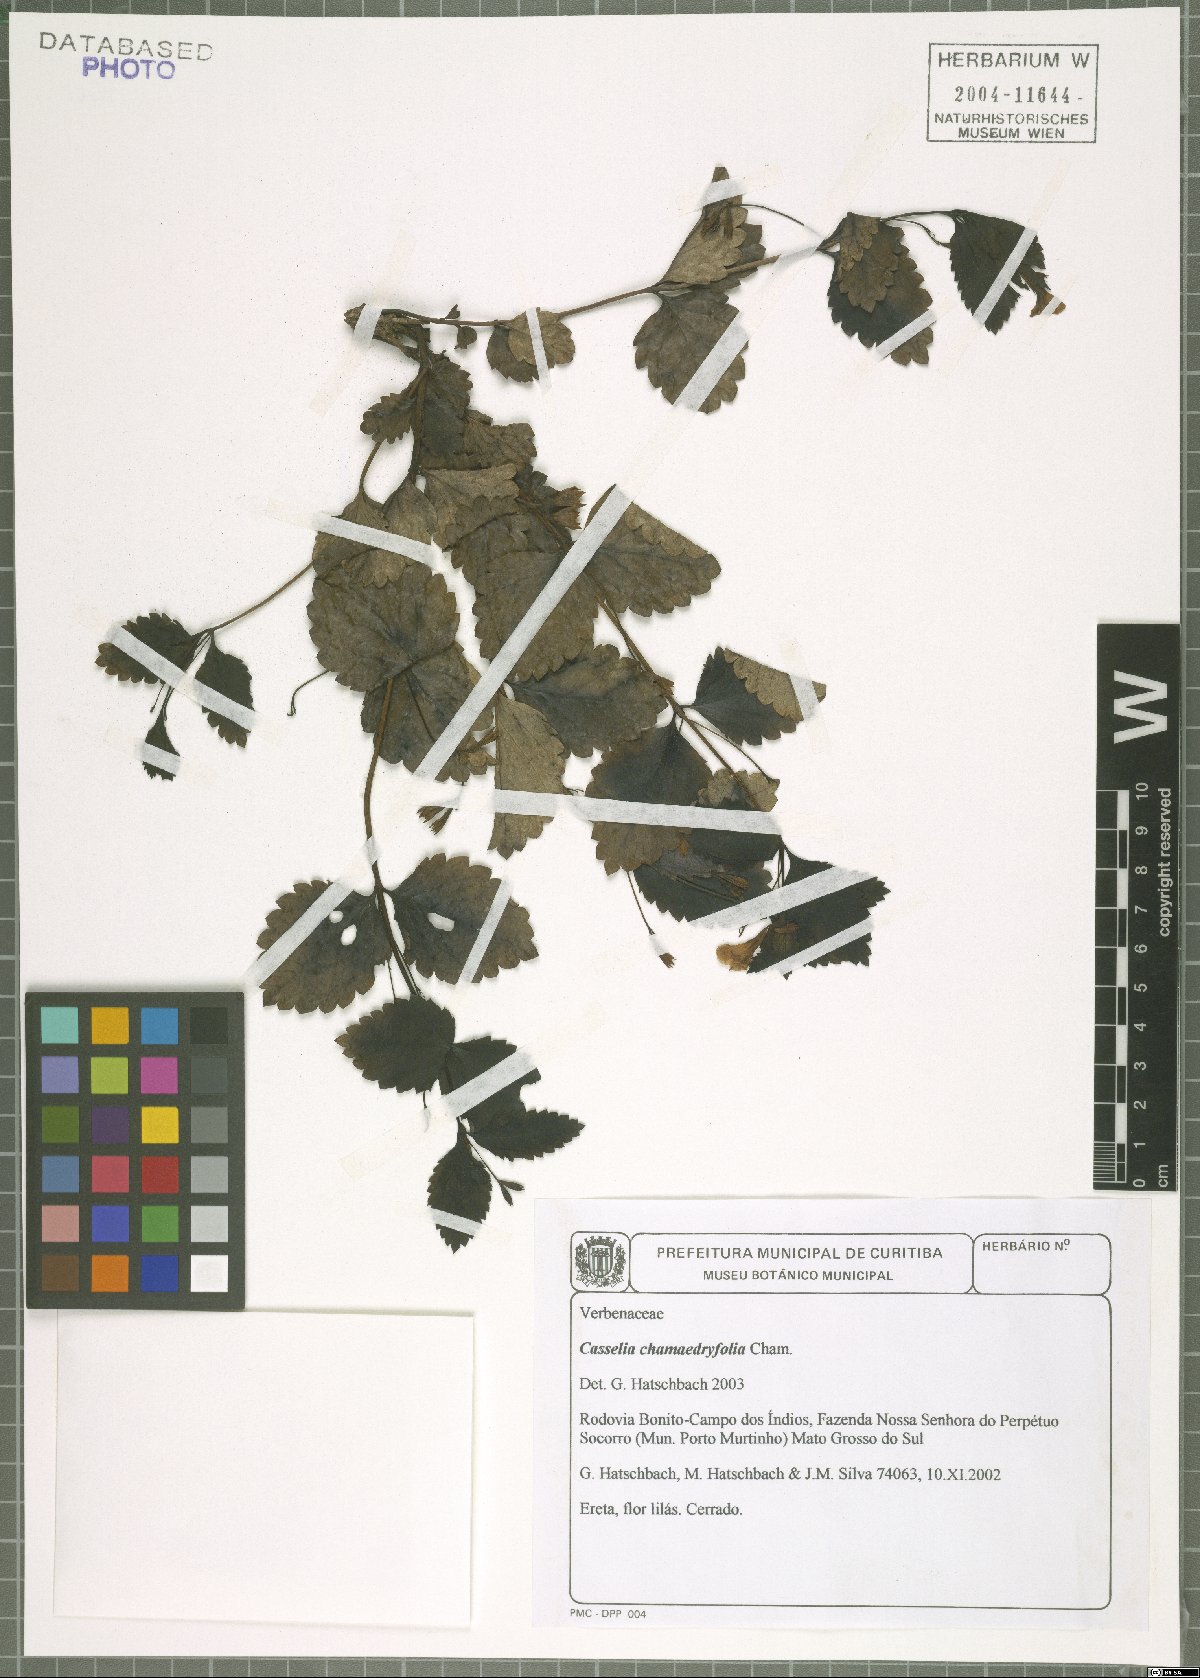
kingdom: Plantae
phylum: Tracheophyta
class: Magnoliopsida
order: Lamiales
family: Verbenaceae
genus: Casselia
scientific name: Casselia chamaedryfolia
